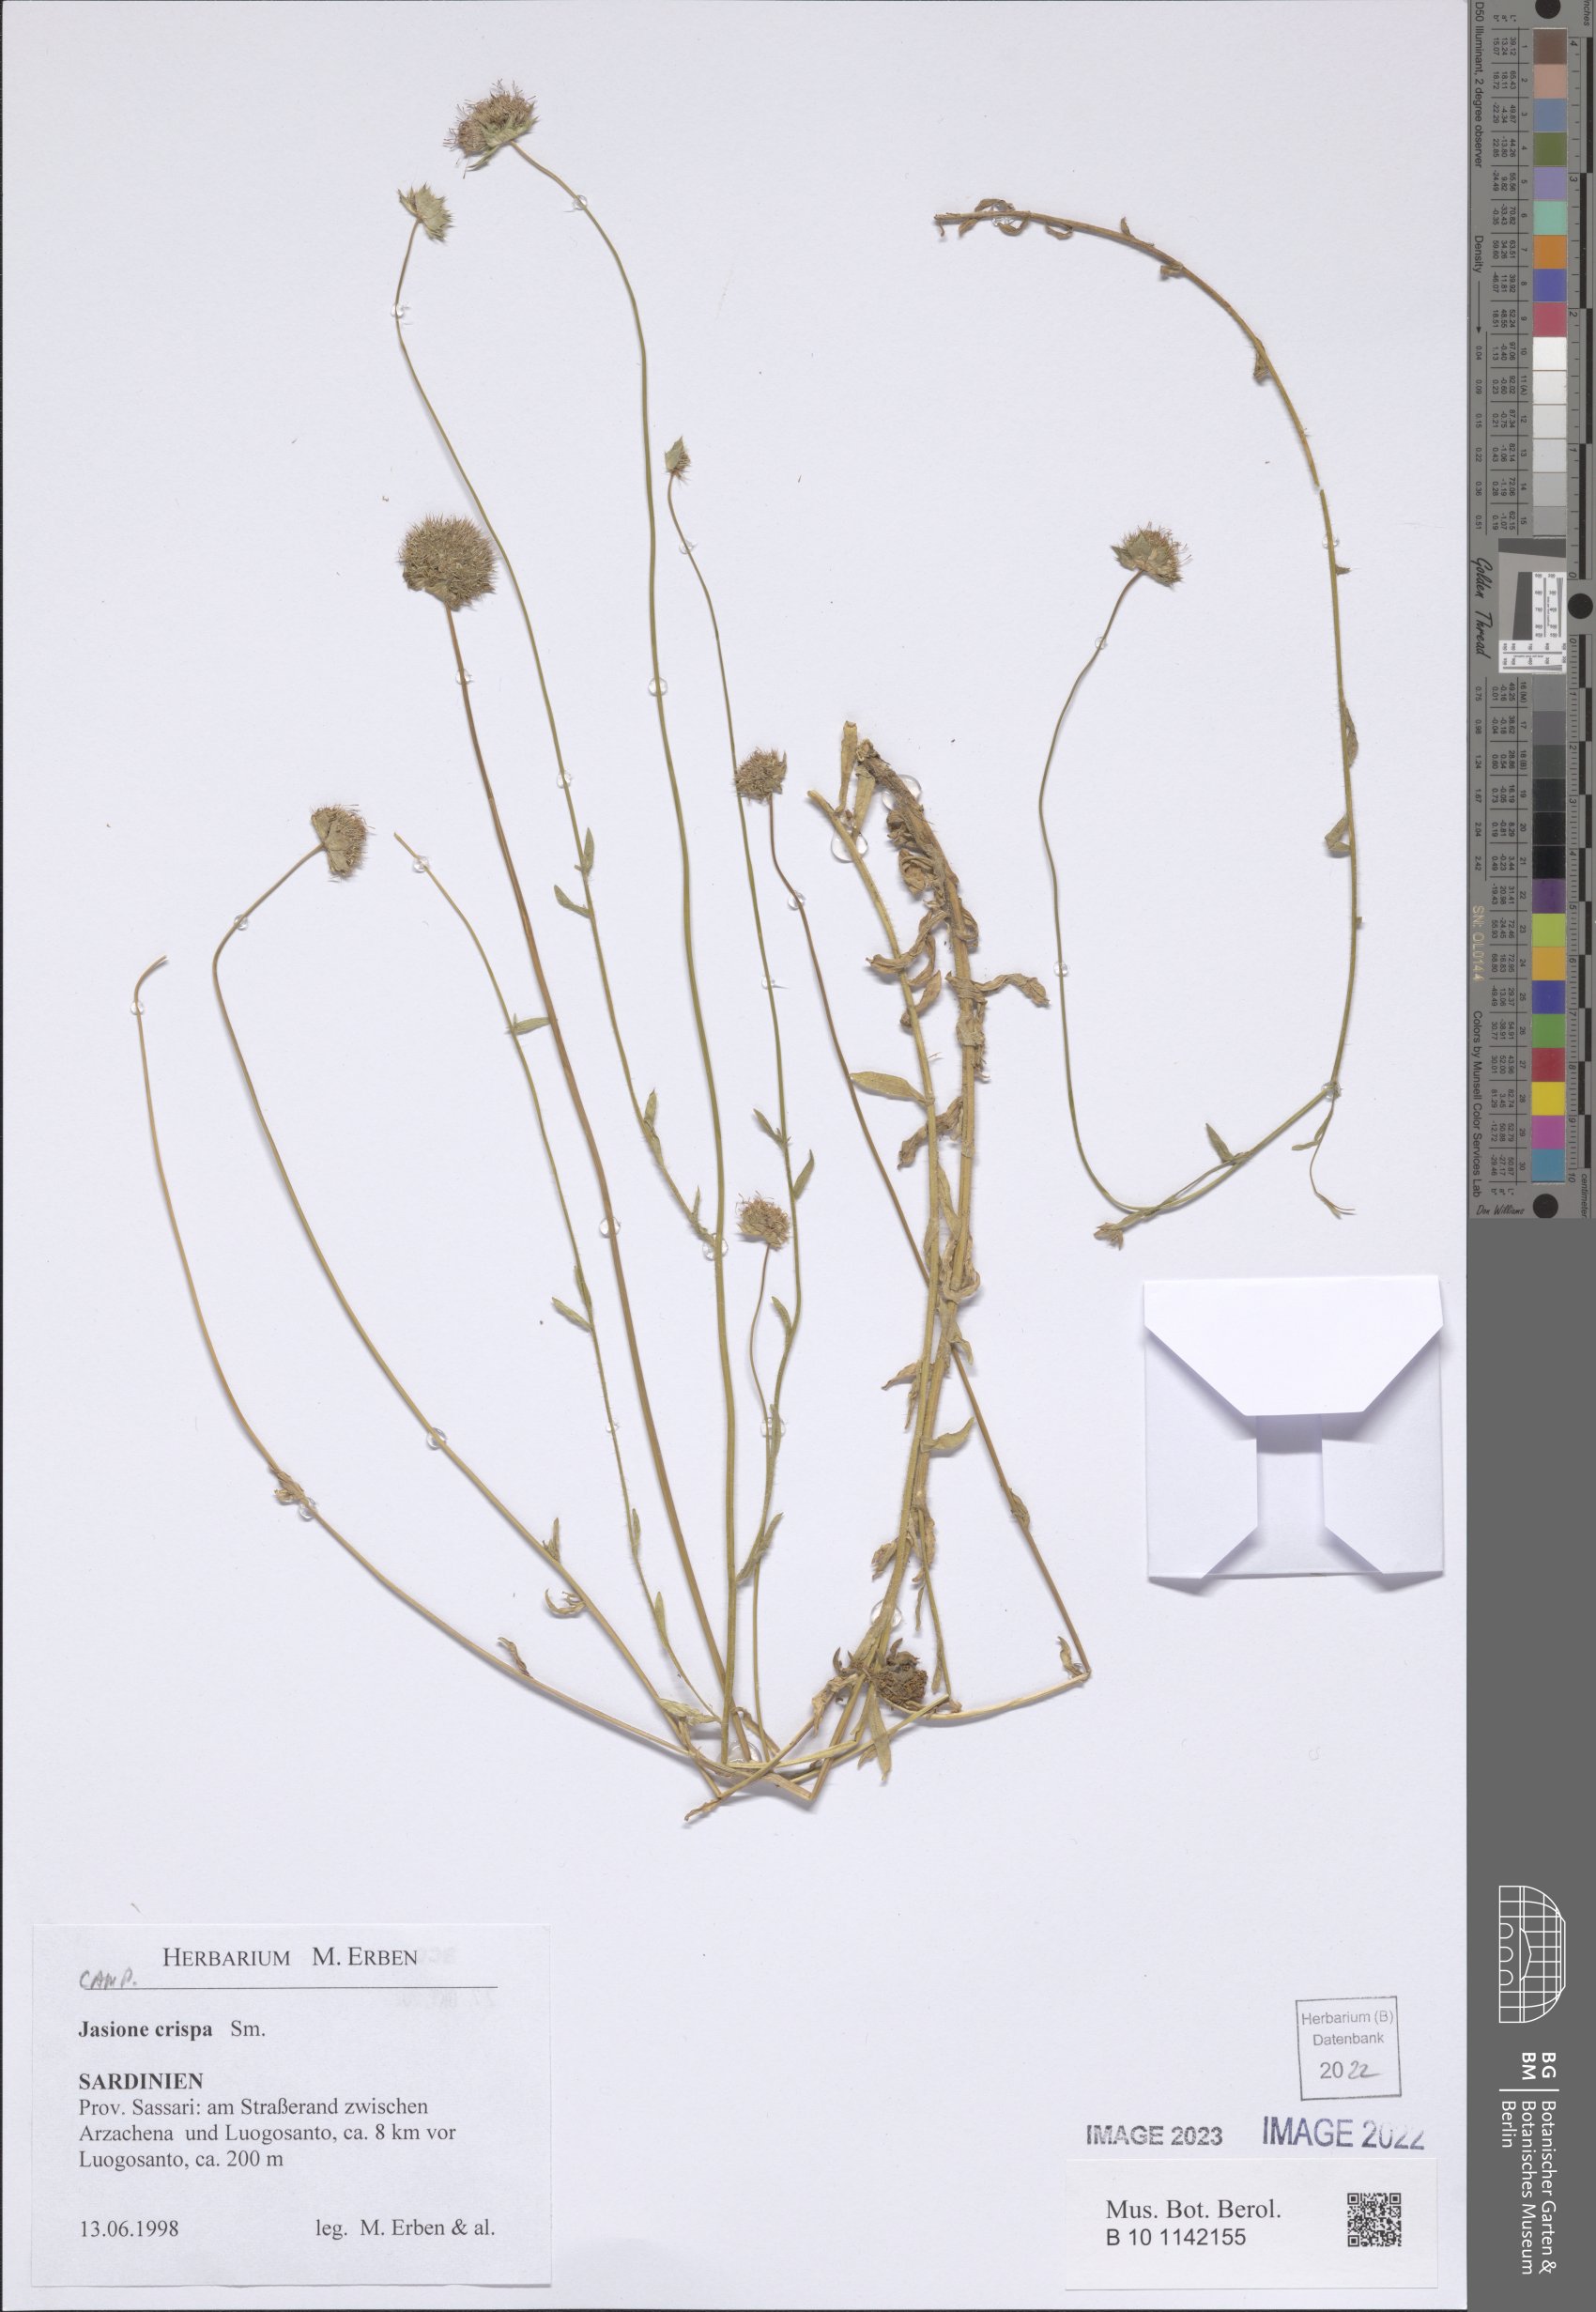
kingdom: Plantae
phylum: Tracheophyta
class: Magnoliopsida
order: Asterales
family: Campanulaceae
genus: Jasione
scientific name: Jasione crispa
